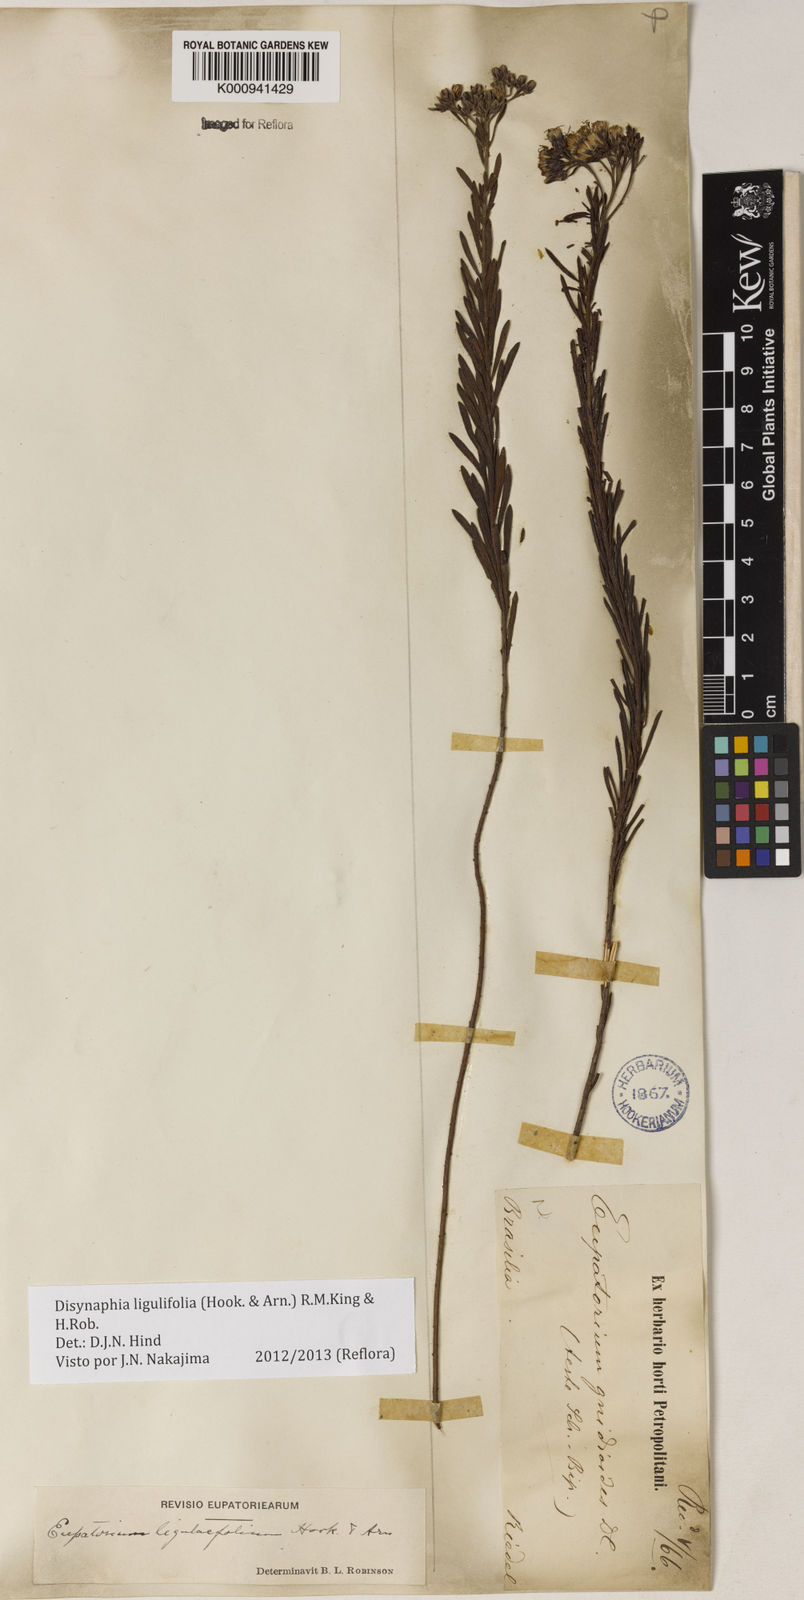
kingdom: Plantae
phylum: Tracheophyta
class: Magnoliopsida
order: Asterales
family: Asteraceae
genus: Disynaphia
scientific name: Disynaphia ligulifolia
